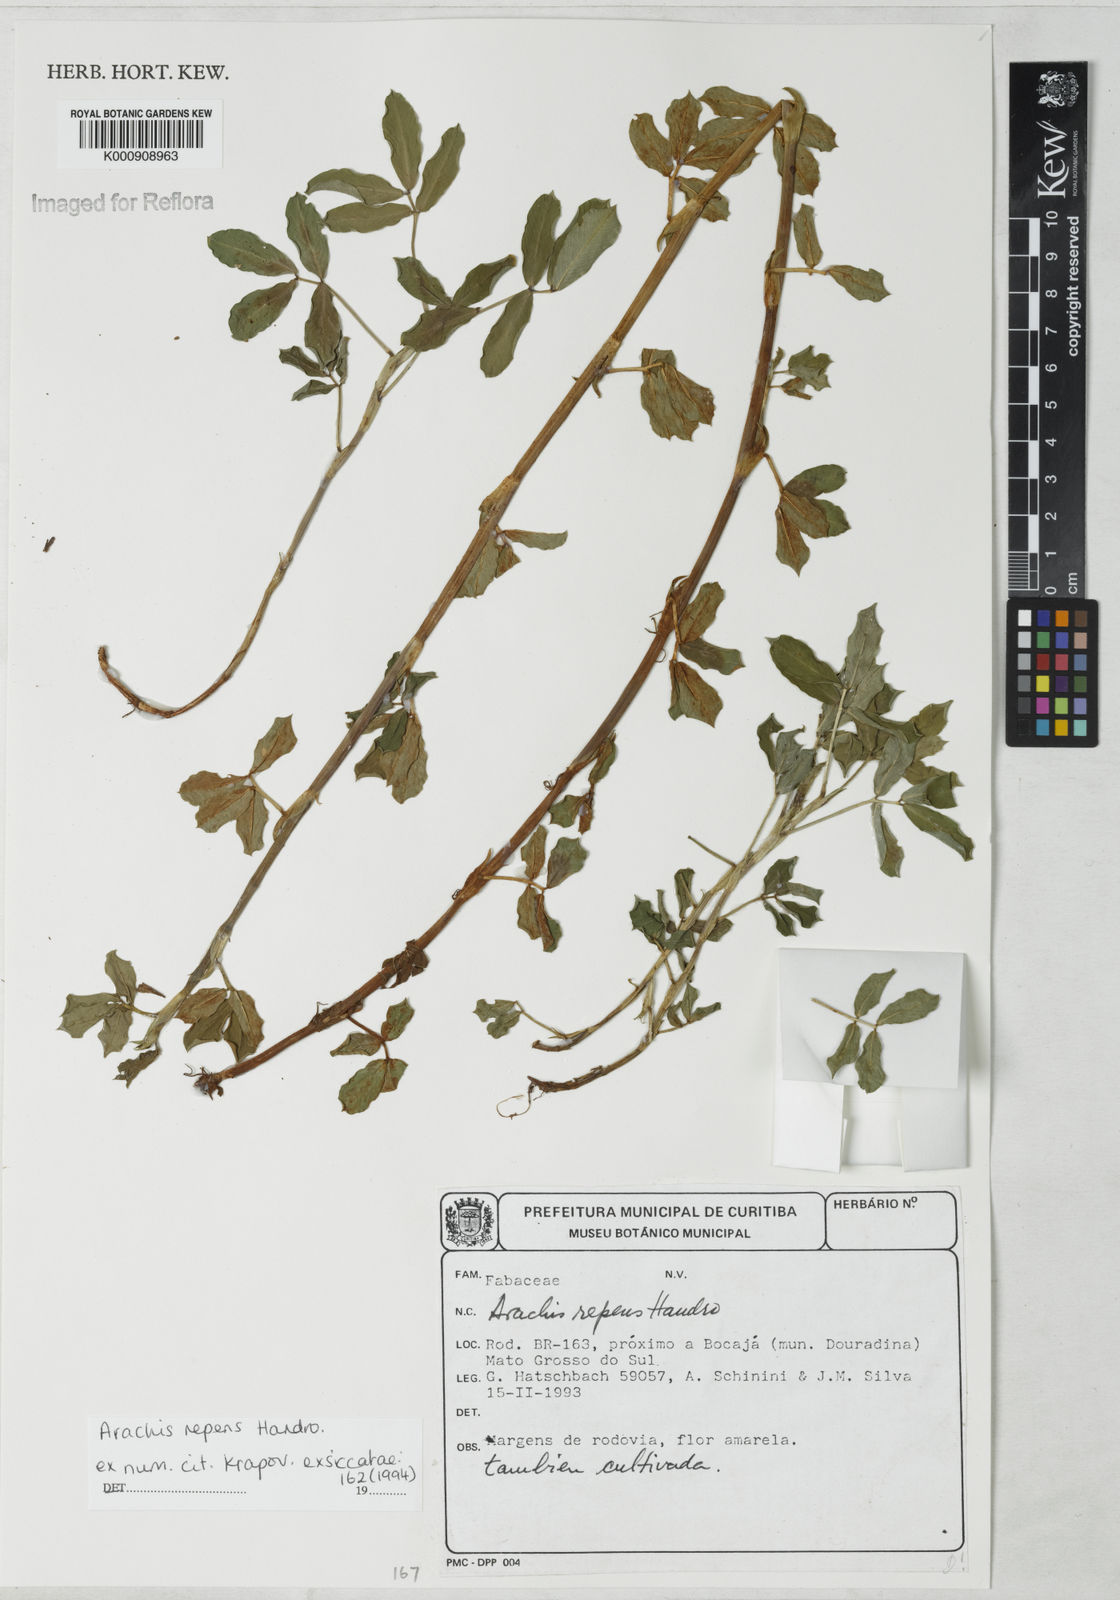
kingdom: Plantae
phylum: Tracheophyta
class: Magnoliopsida
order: Fabales
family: Fabaceae
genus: Arachis
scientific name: Arachis repens
